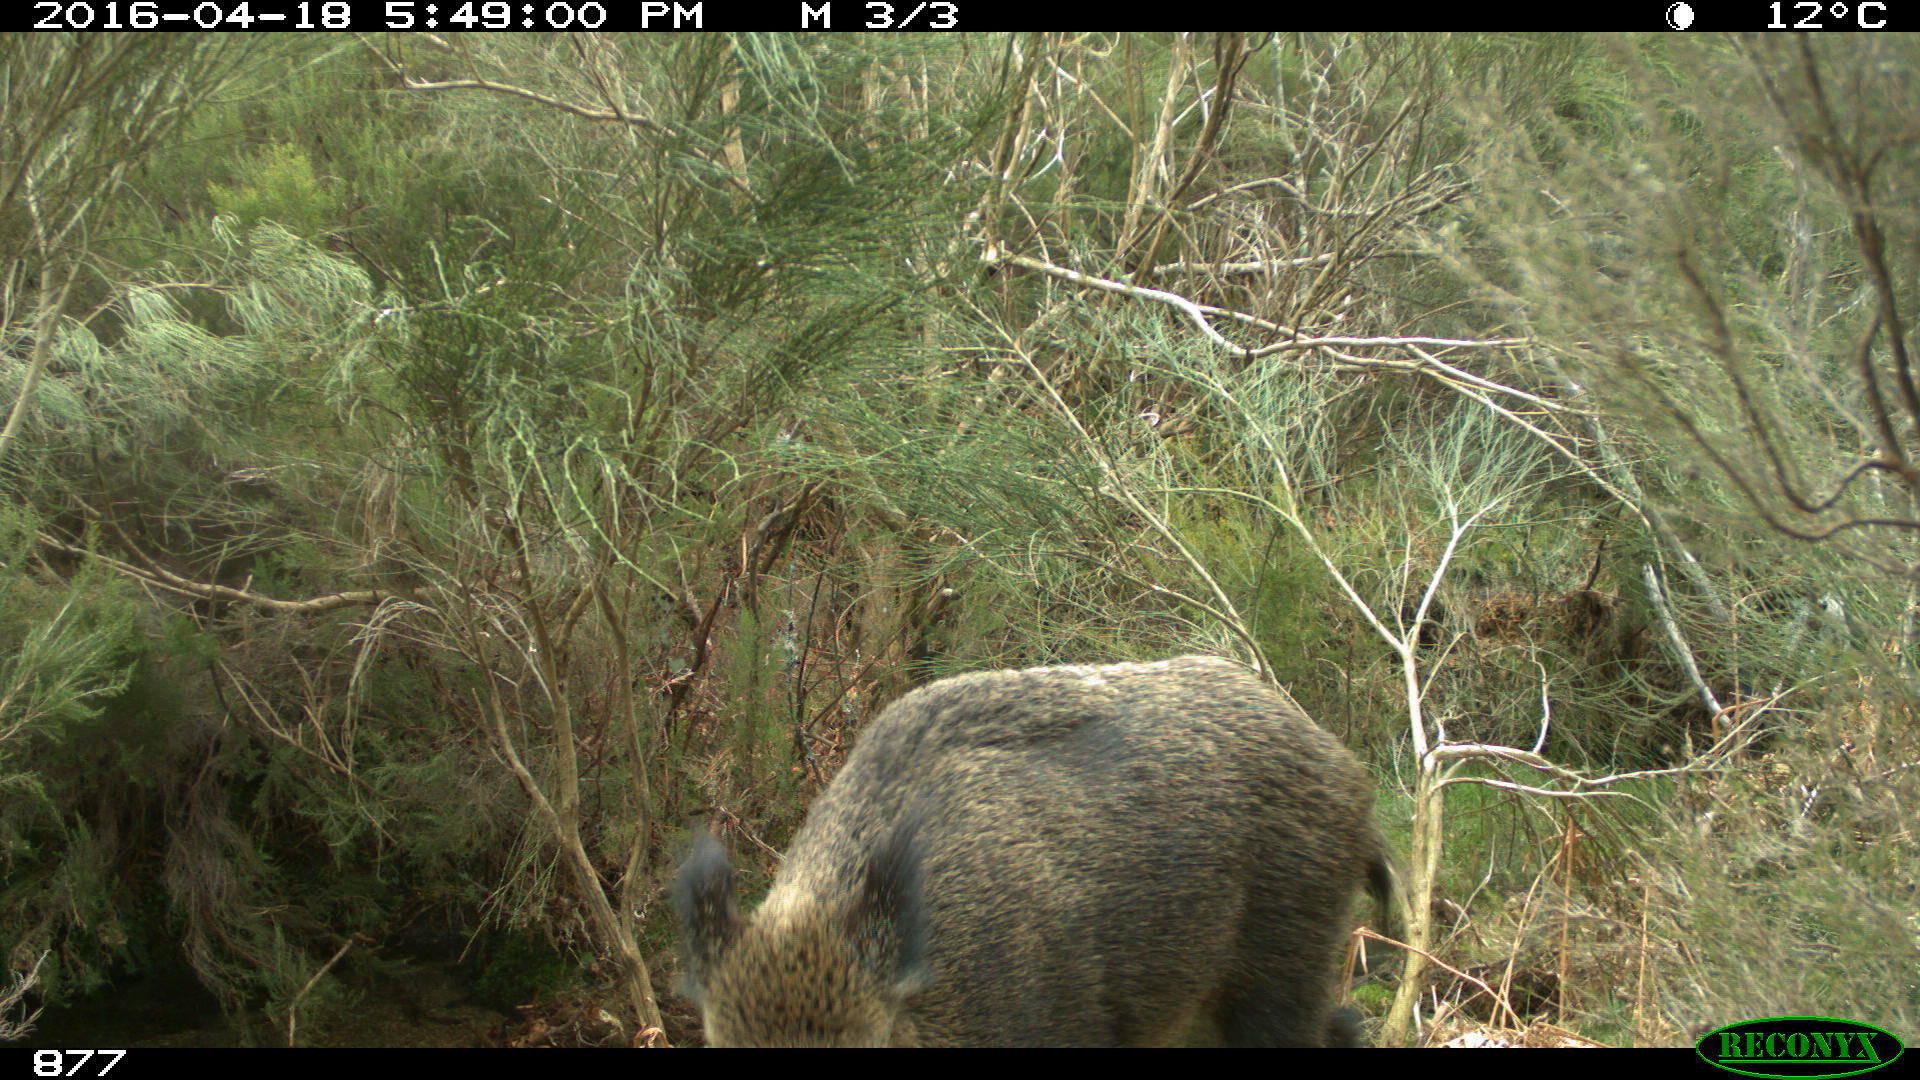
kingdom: Animalia
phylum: Chordata
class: Mammalia
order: Artiodactyla
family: Suidae
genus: Sus
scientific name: Sus scrofa
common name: Wild boar
